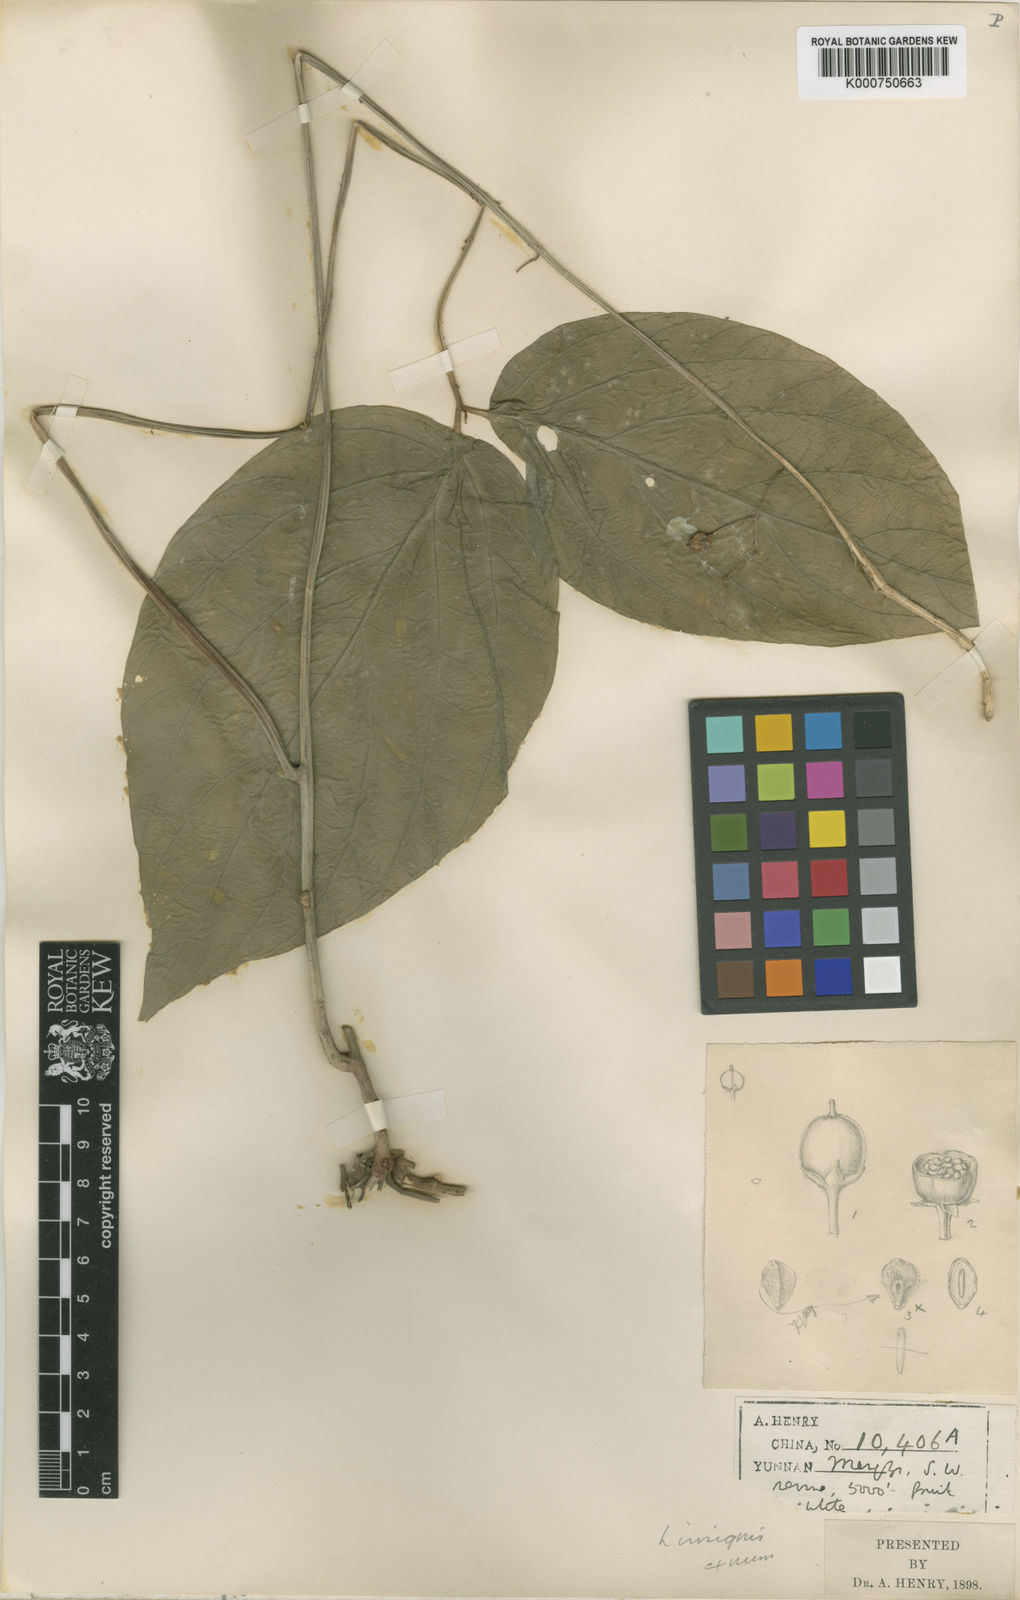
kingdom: Plantae
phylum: Tracheophyta
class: Magnoliopsida
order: Ericales
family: Primulaceae
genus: Lysimachia
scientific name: Lysimachia insignis
